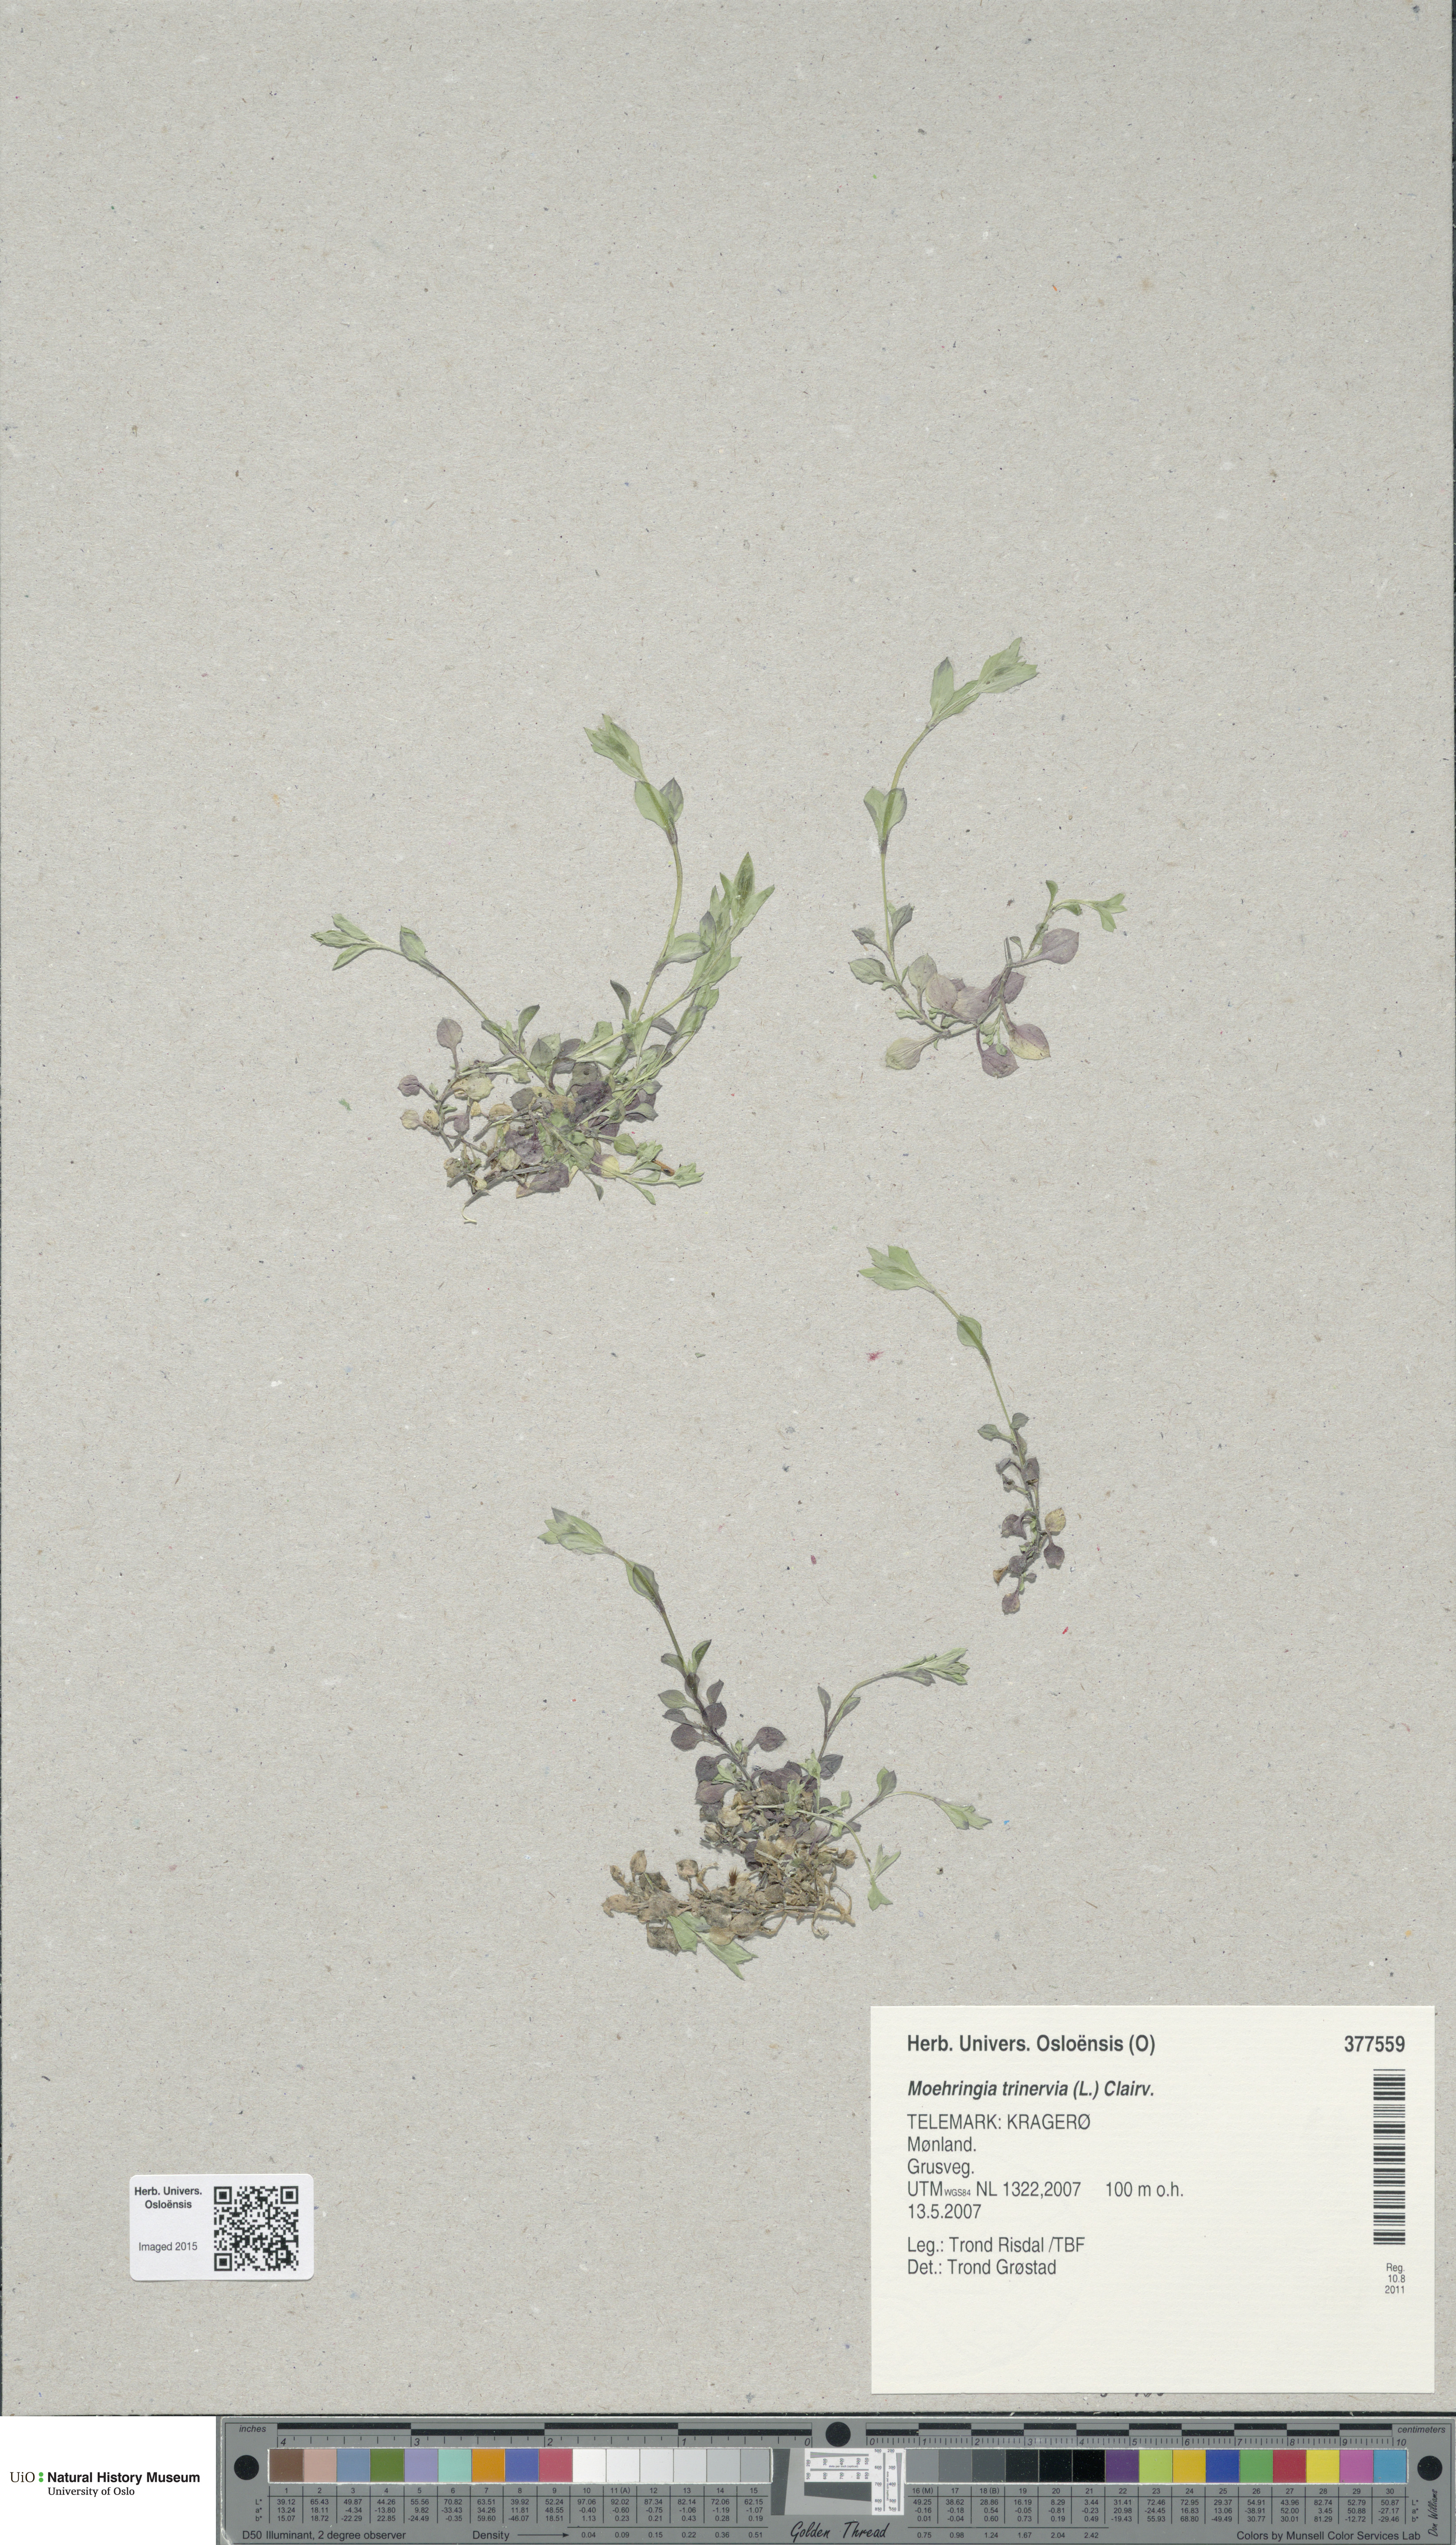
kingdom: Plantae
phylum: Tracheophyta
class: Magnoliopsida
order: Caryophyllales
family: Caryophyllaceae
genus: Moehringia
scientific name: Moehringia trinervia
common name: Three-nerved sandwort
